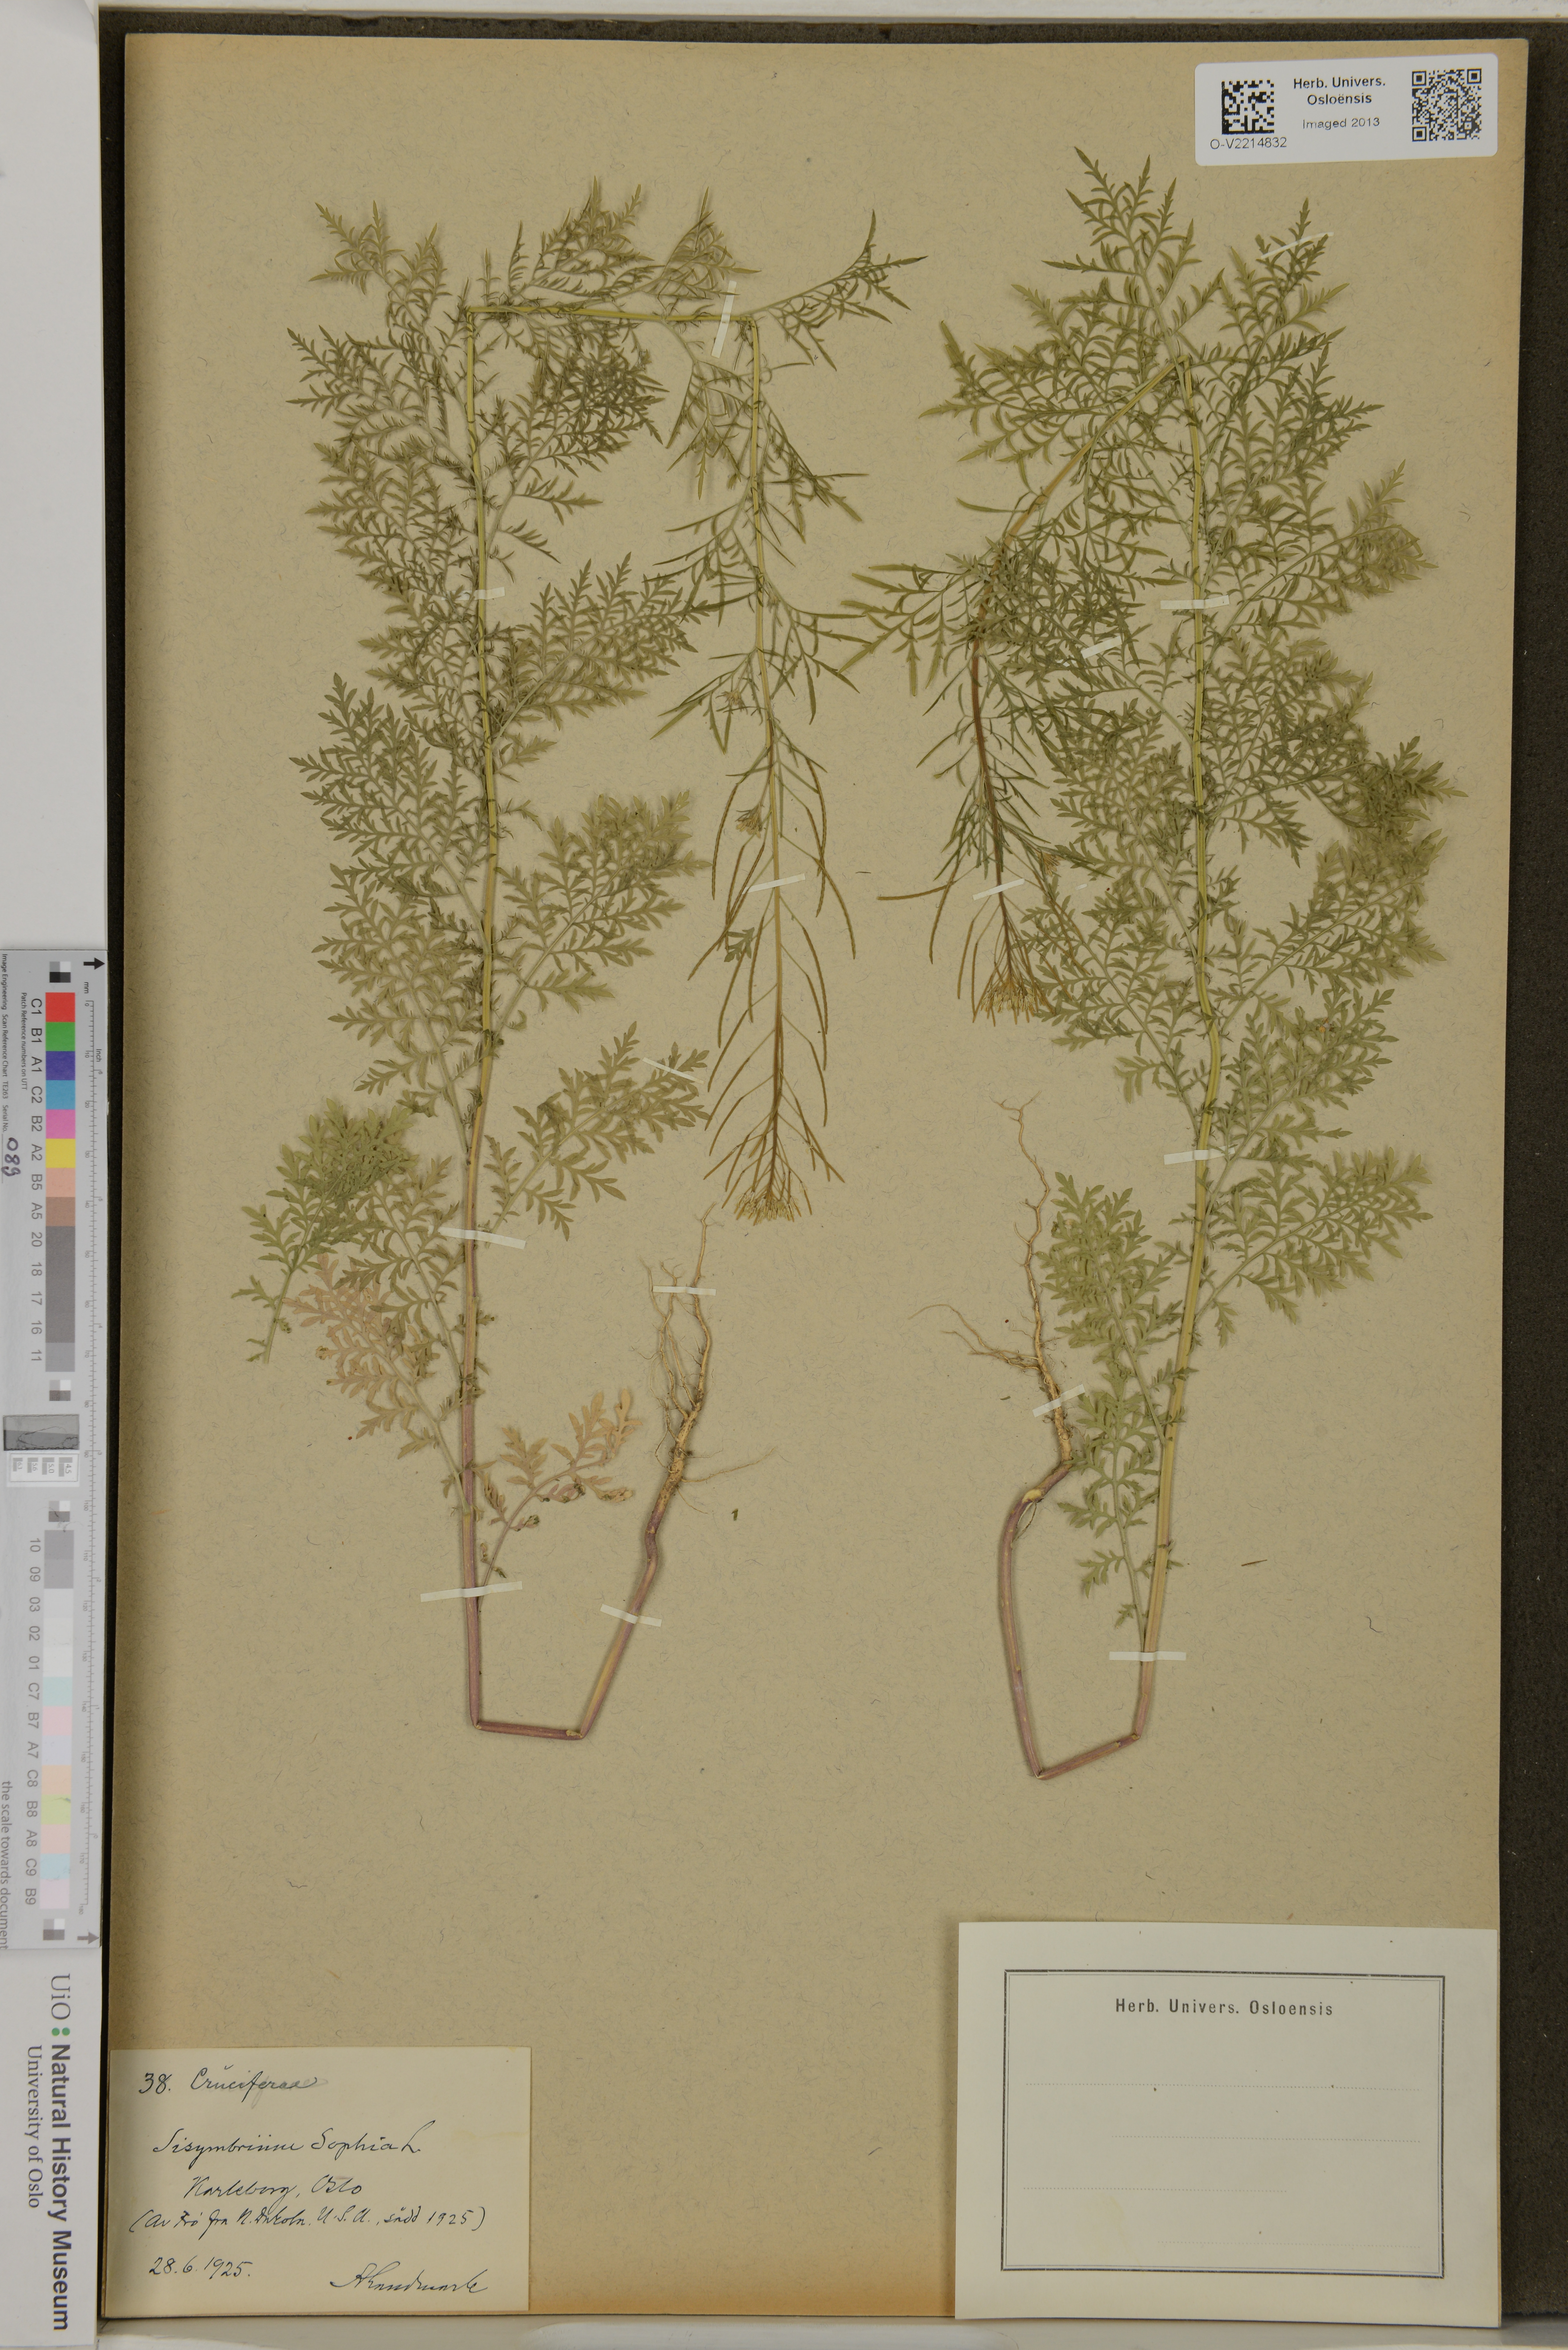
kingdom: Plantae
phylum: Tracheophyta
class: Magnoliopsida
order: Brassicales
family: Brassicaceae
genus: Descurainia
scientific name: Descurainia sophia
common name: Flixweed
